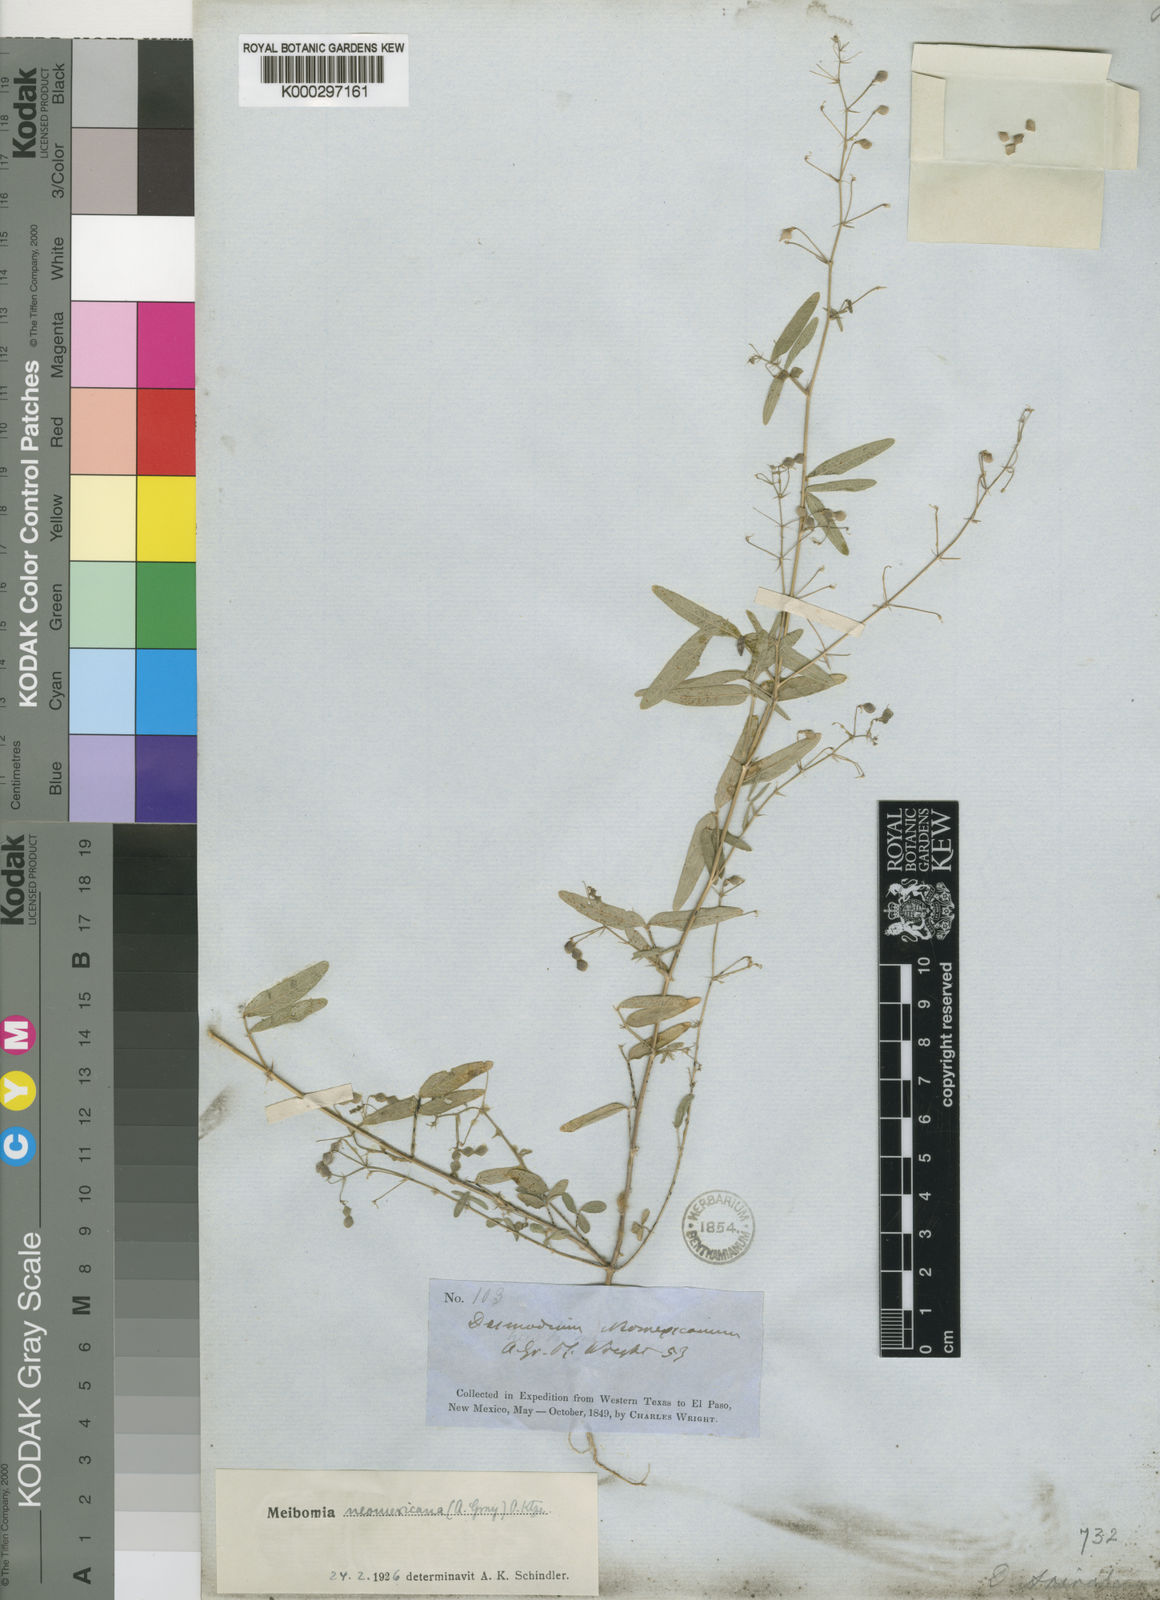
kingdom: Plantae
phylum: Tracheophyta
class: Magnoliopsida
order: Fabales
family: Fabaceae
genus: Desmodium
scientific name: Desmodium procumbens
